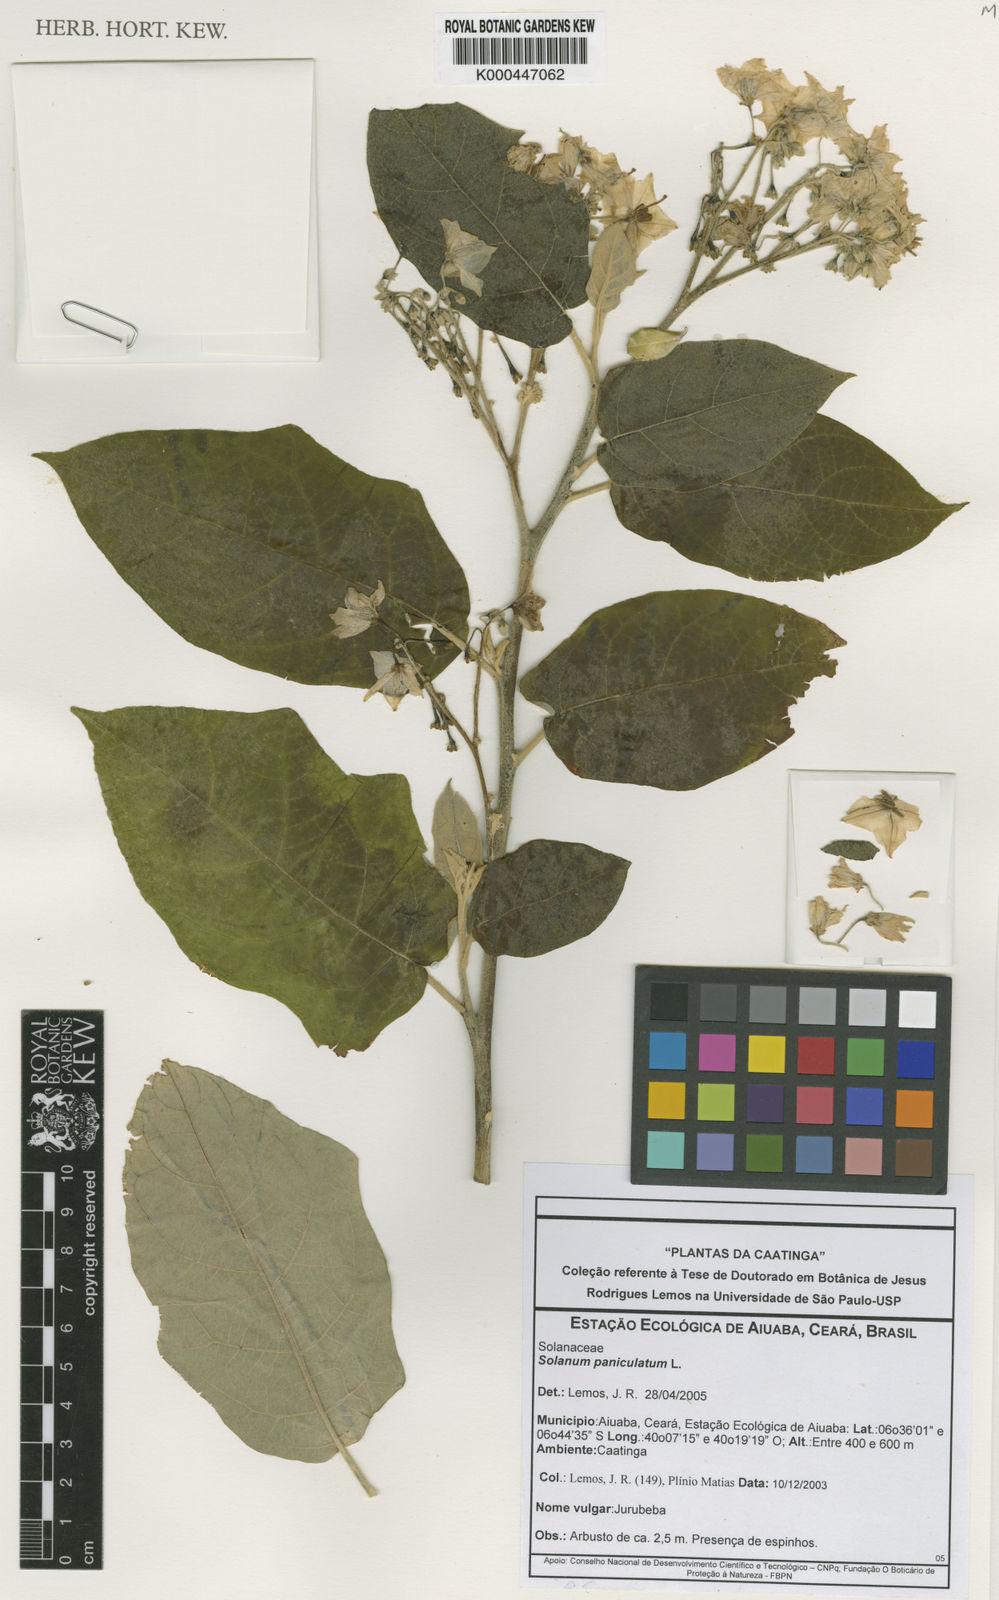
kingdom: Plantae
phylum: Tracheophyta
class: Magnoliopsida
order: Solanales
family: Solanaceae
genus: Solanum
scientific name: Solanum paniculatum
